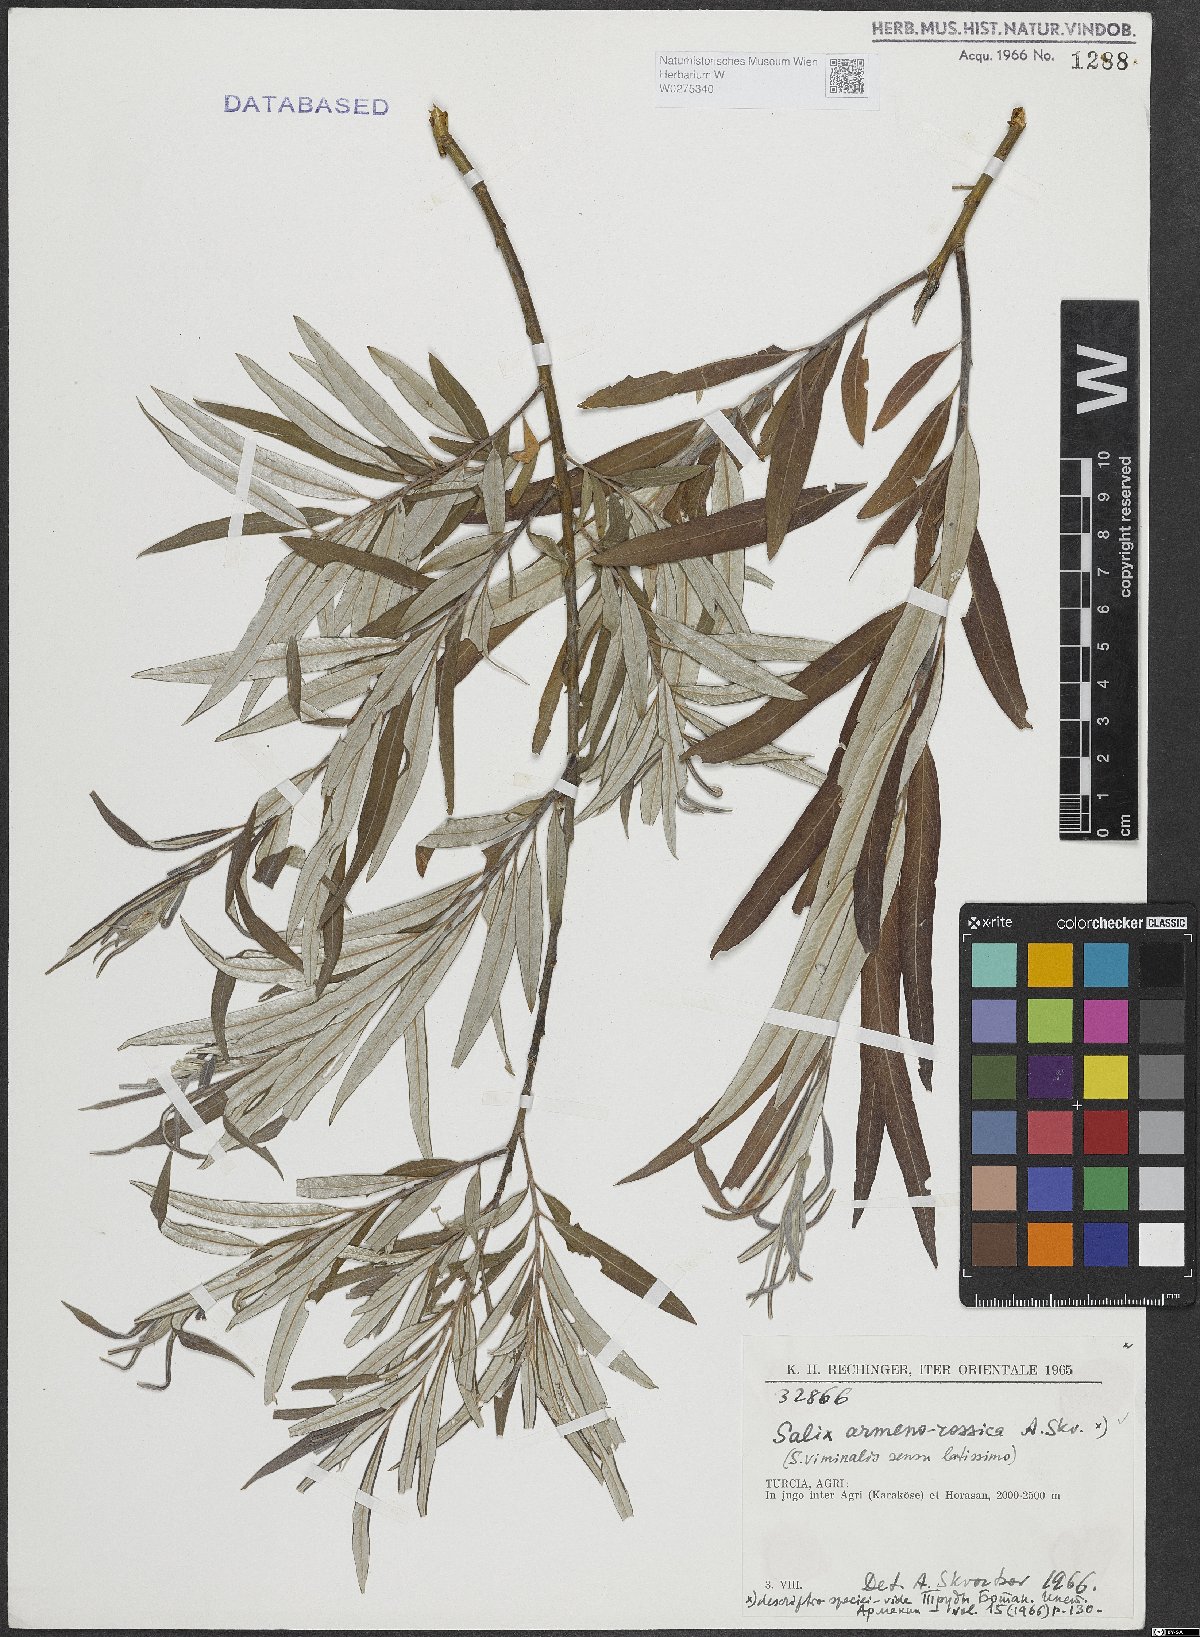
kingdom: Plantae
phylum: Tracheophyta
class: Magnoliopsida
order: Malpighiales
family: Salicaceae
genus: Salix
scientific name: Salix viminalis
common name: Osier
